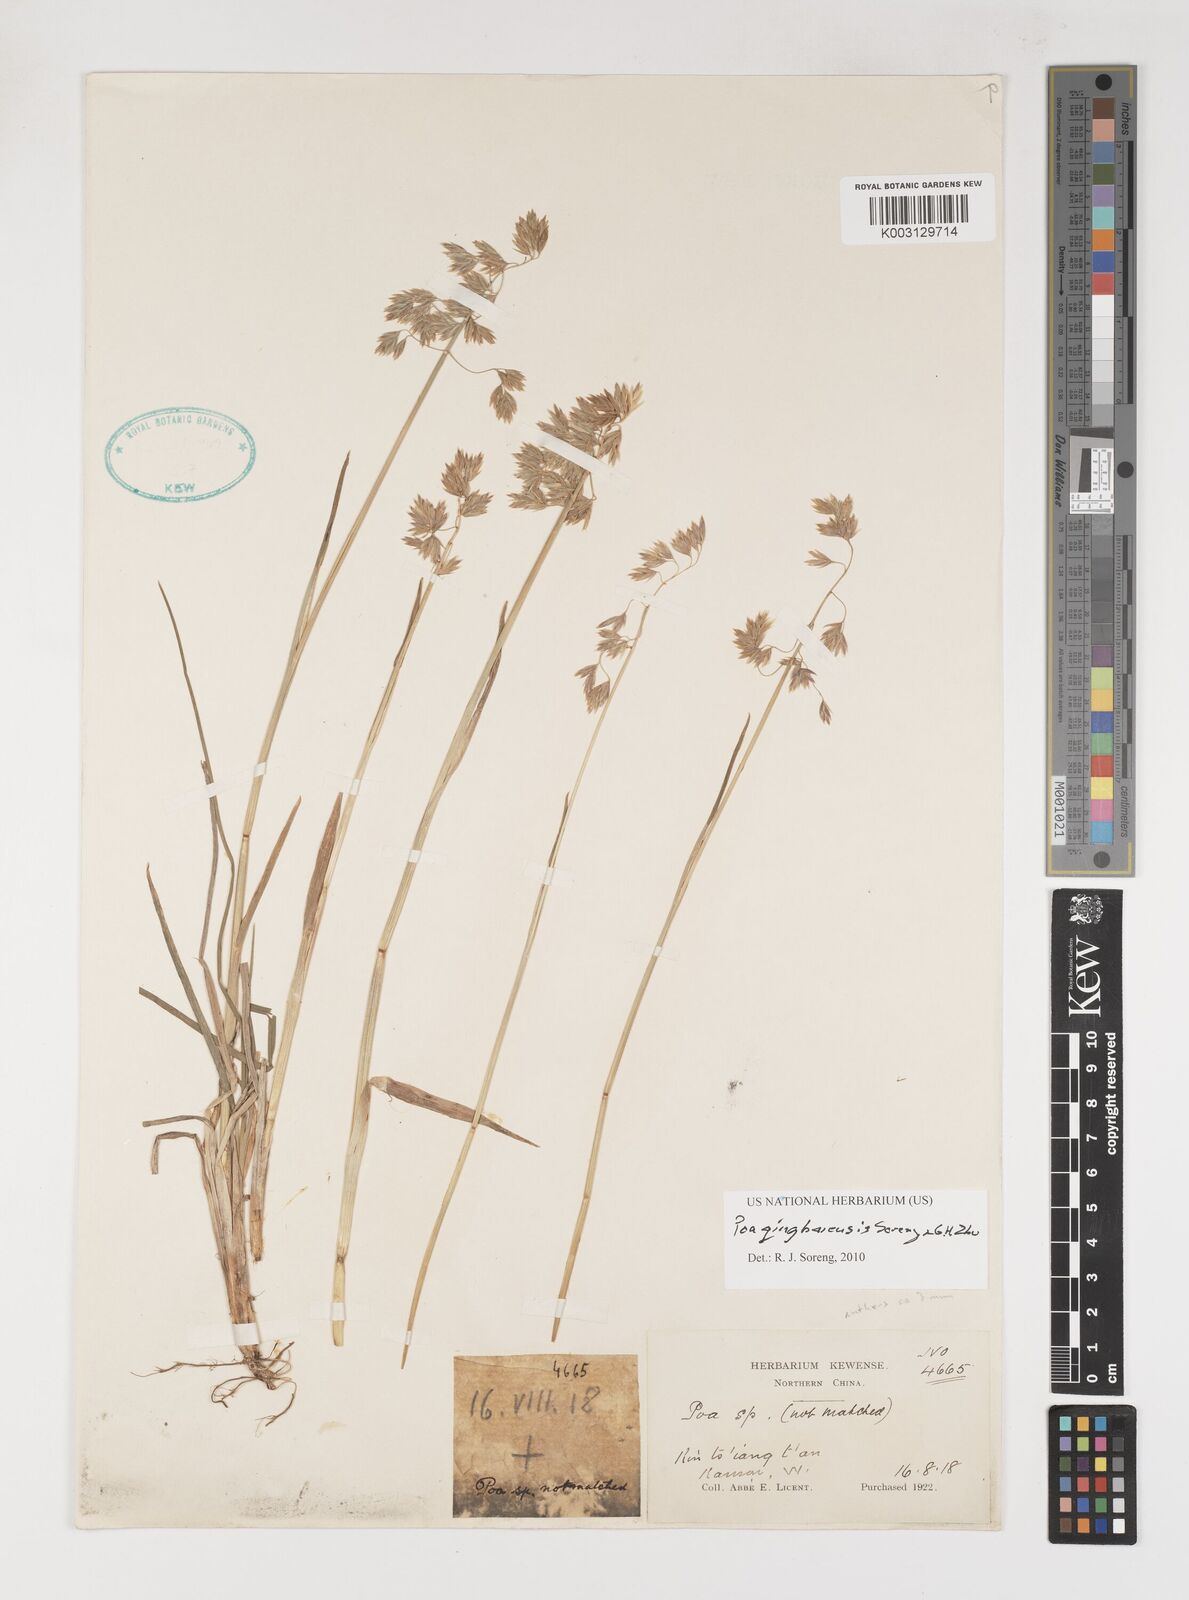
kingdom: Plantae
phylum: Tracheophyta
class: Liliopsida
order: Poales
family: Poaceae
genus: Poa
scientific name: Poa qinghaiensis
